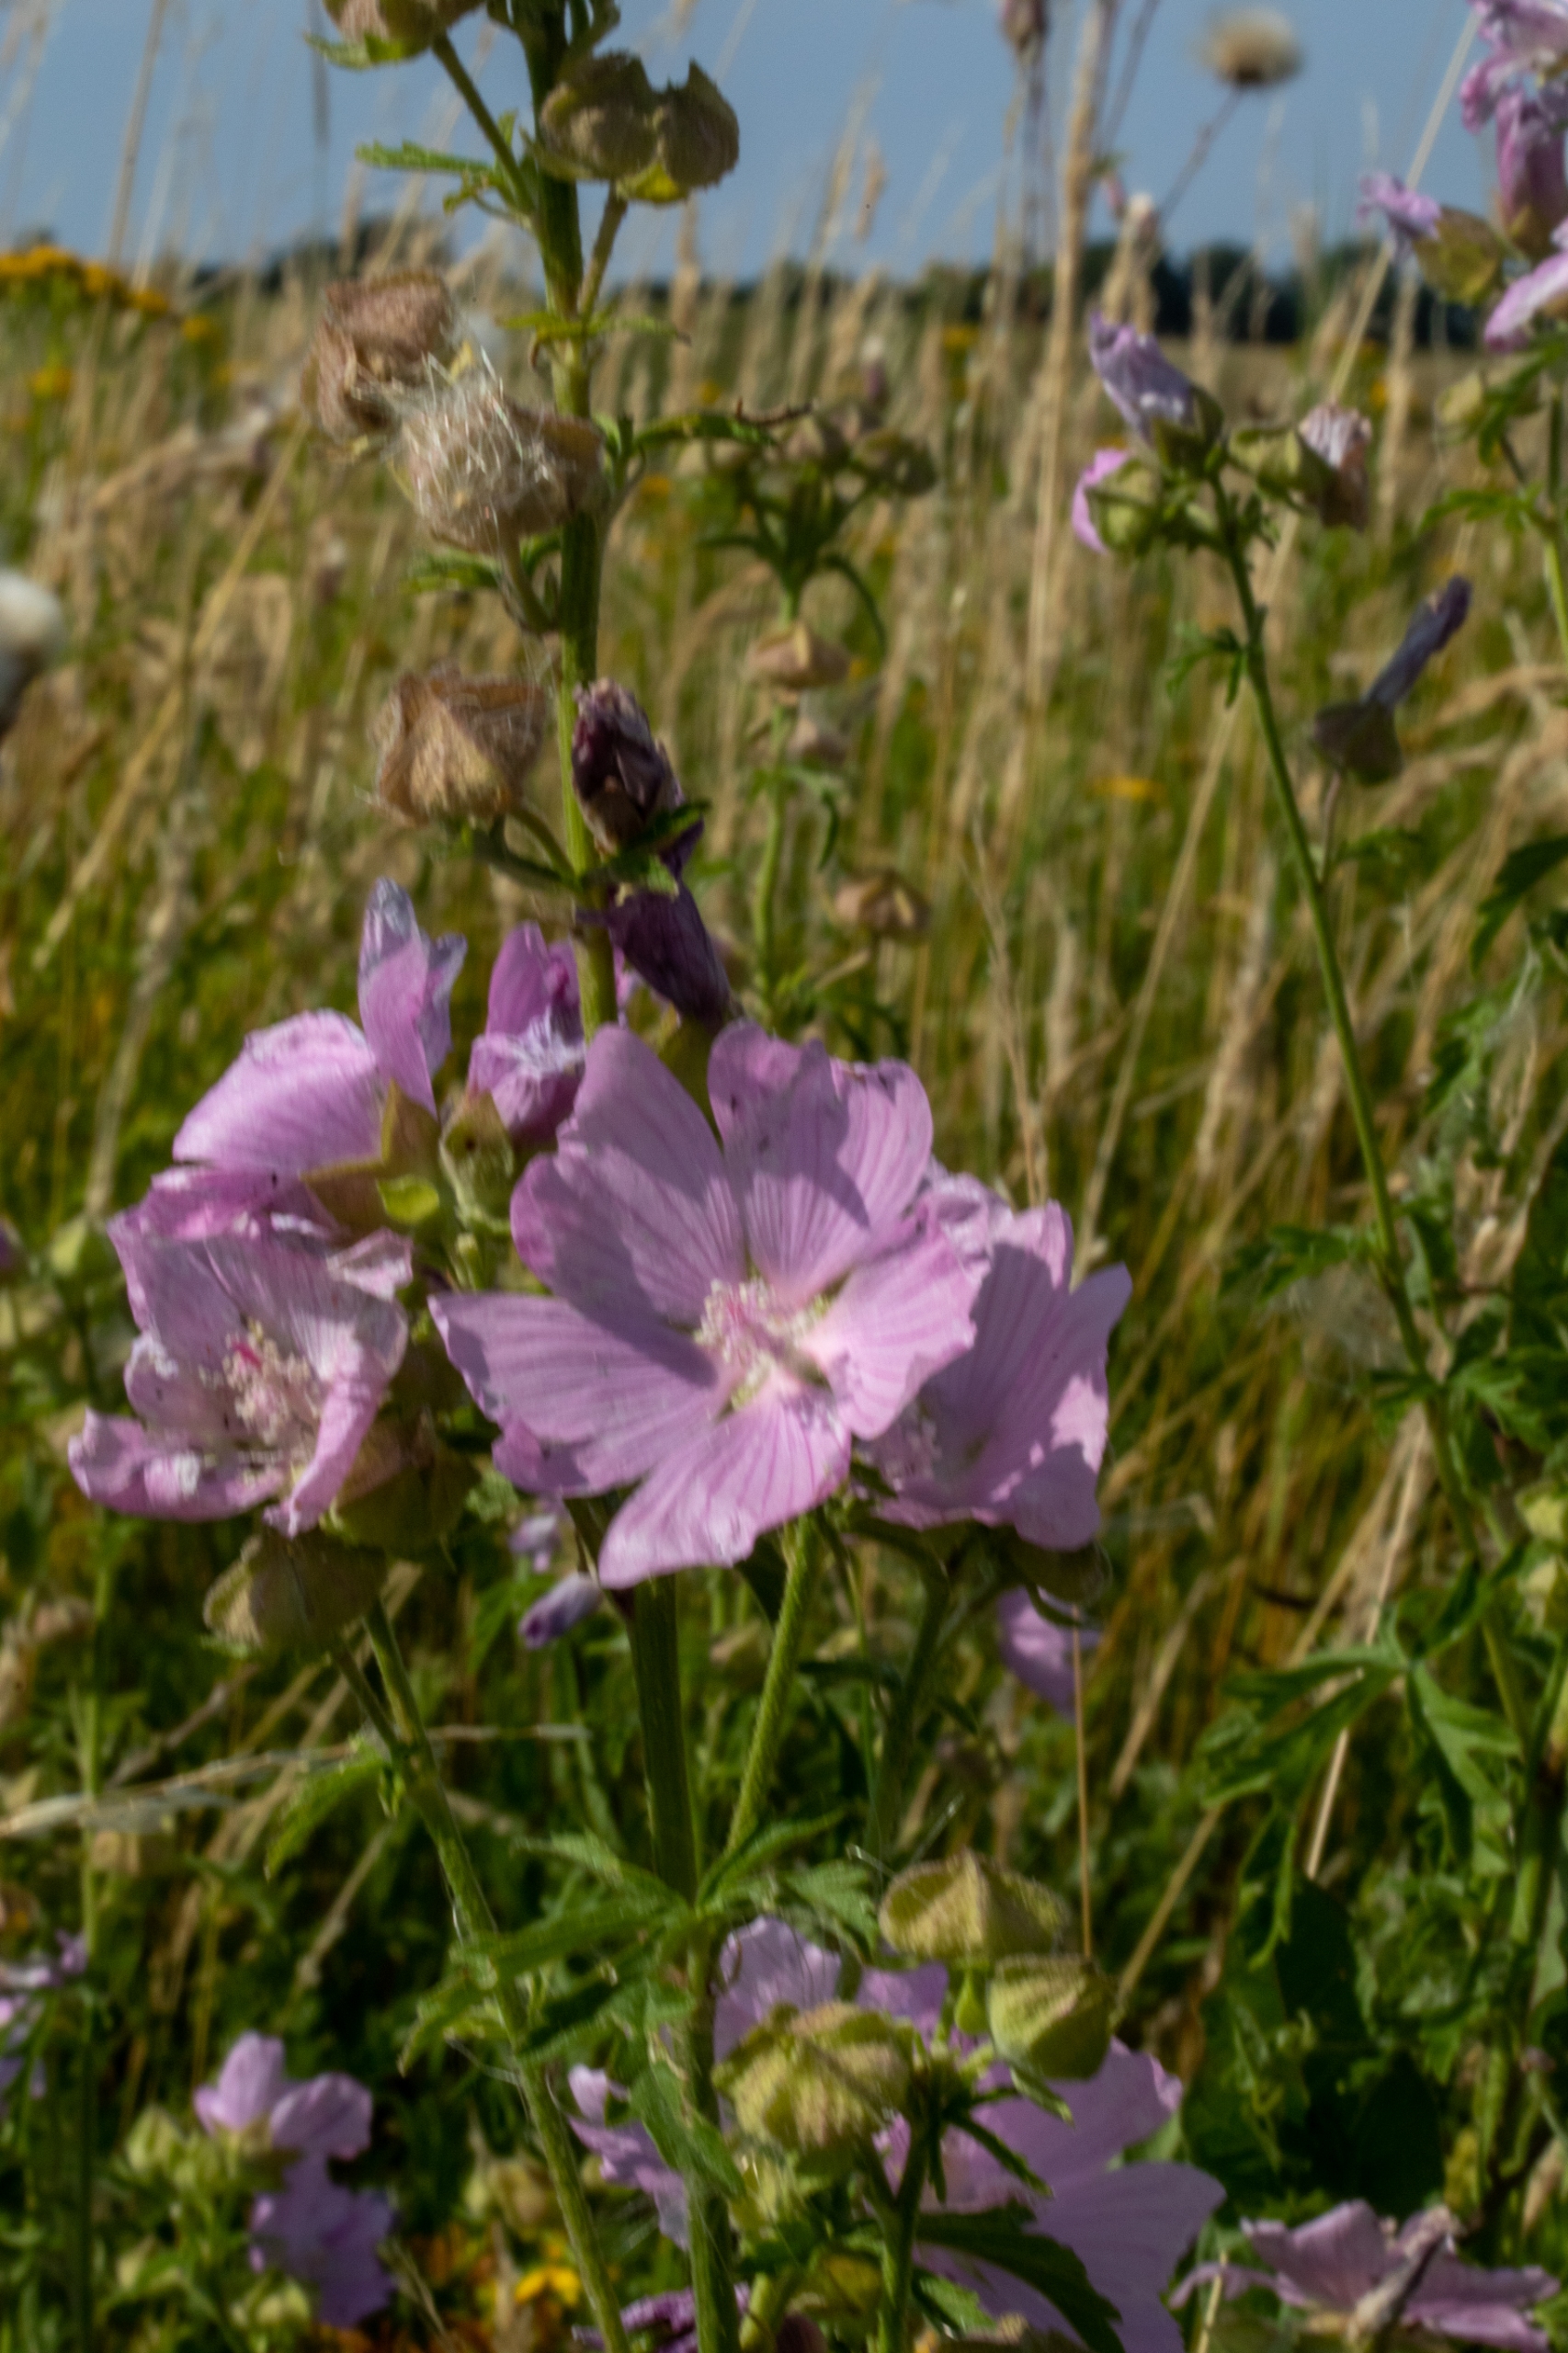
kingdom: Plantae
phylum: Tracheophyta
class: Magnoliopsida
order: Malvales
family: Malvaceae
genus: Malva
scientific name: Malva alcea
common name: Rosen-katost
